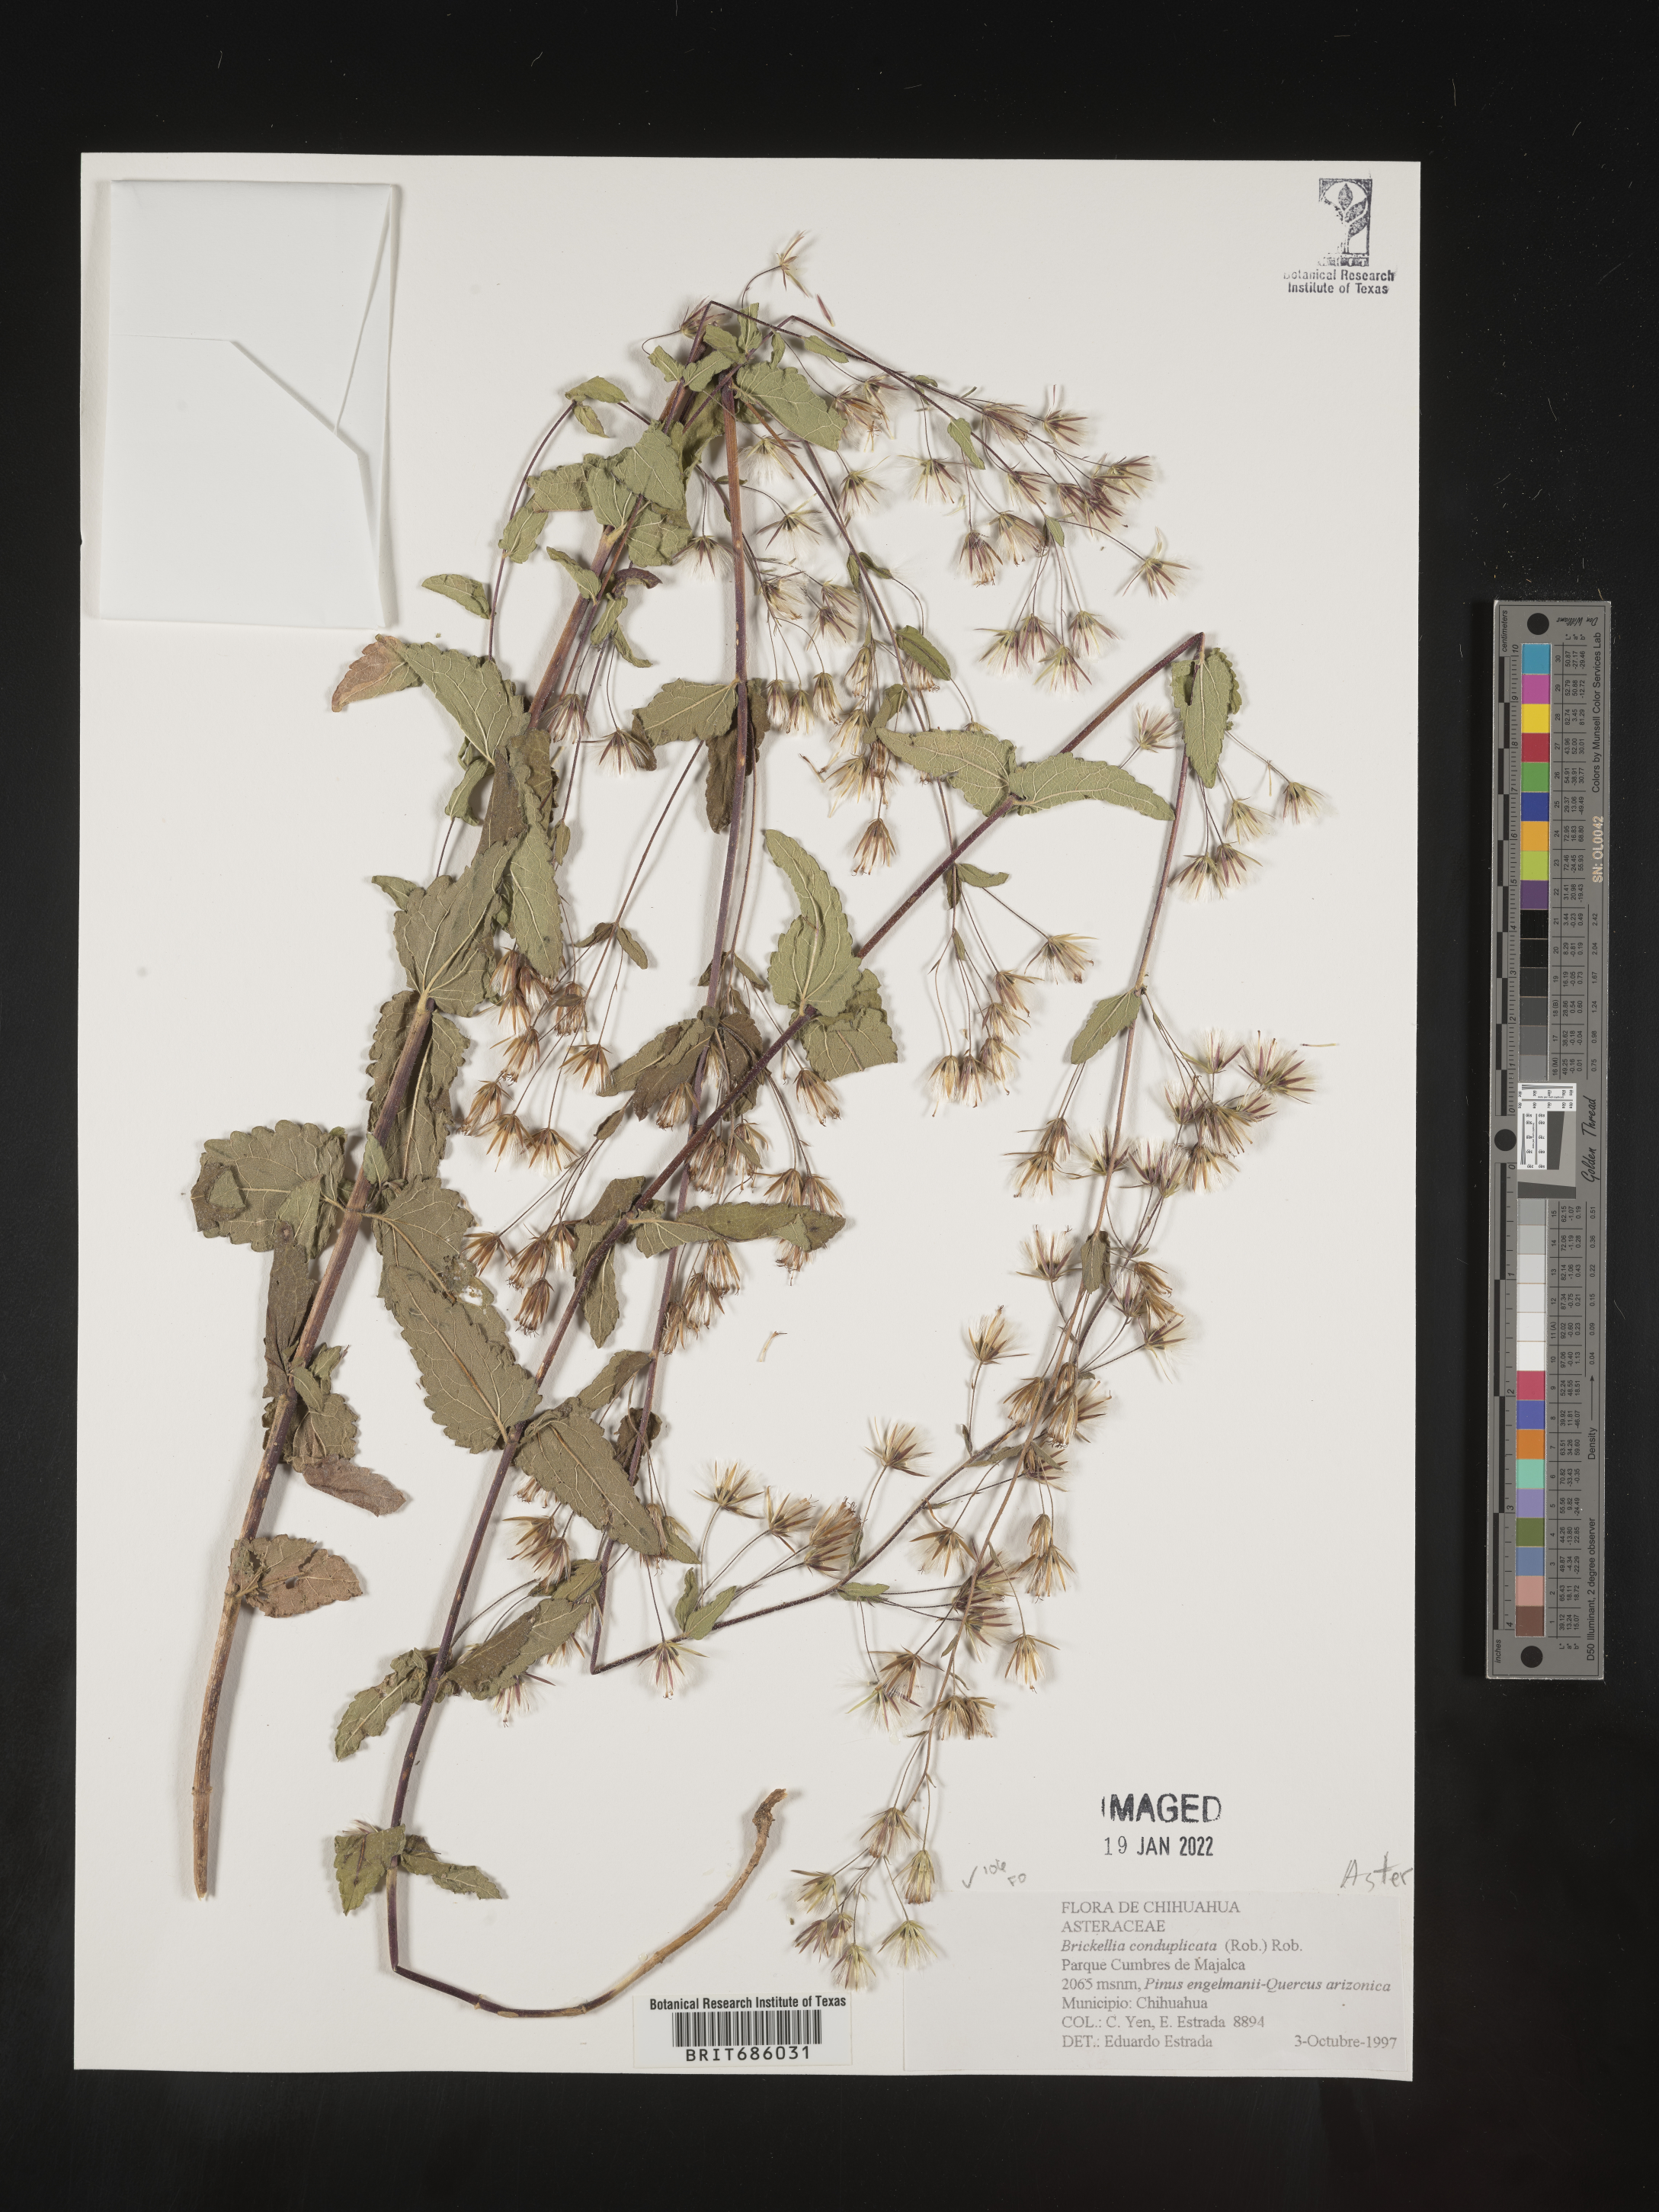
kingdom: Plantae
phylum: Tracheophyta
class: Magnoliopsida
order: Asterales
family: Asteraceae
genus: Brickellia
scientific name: Brickellia
